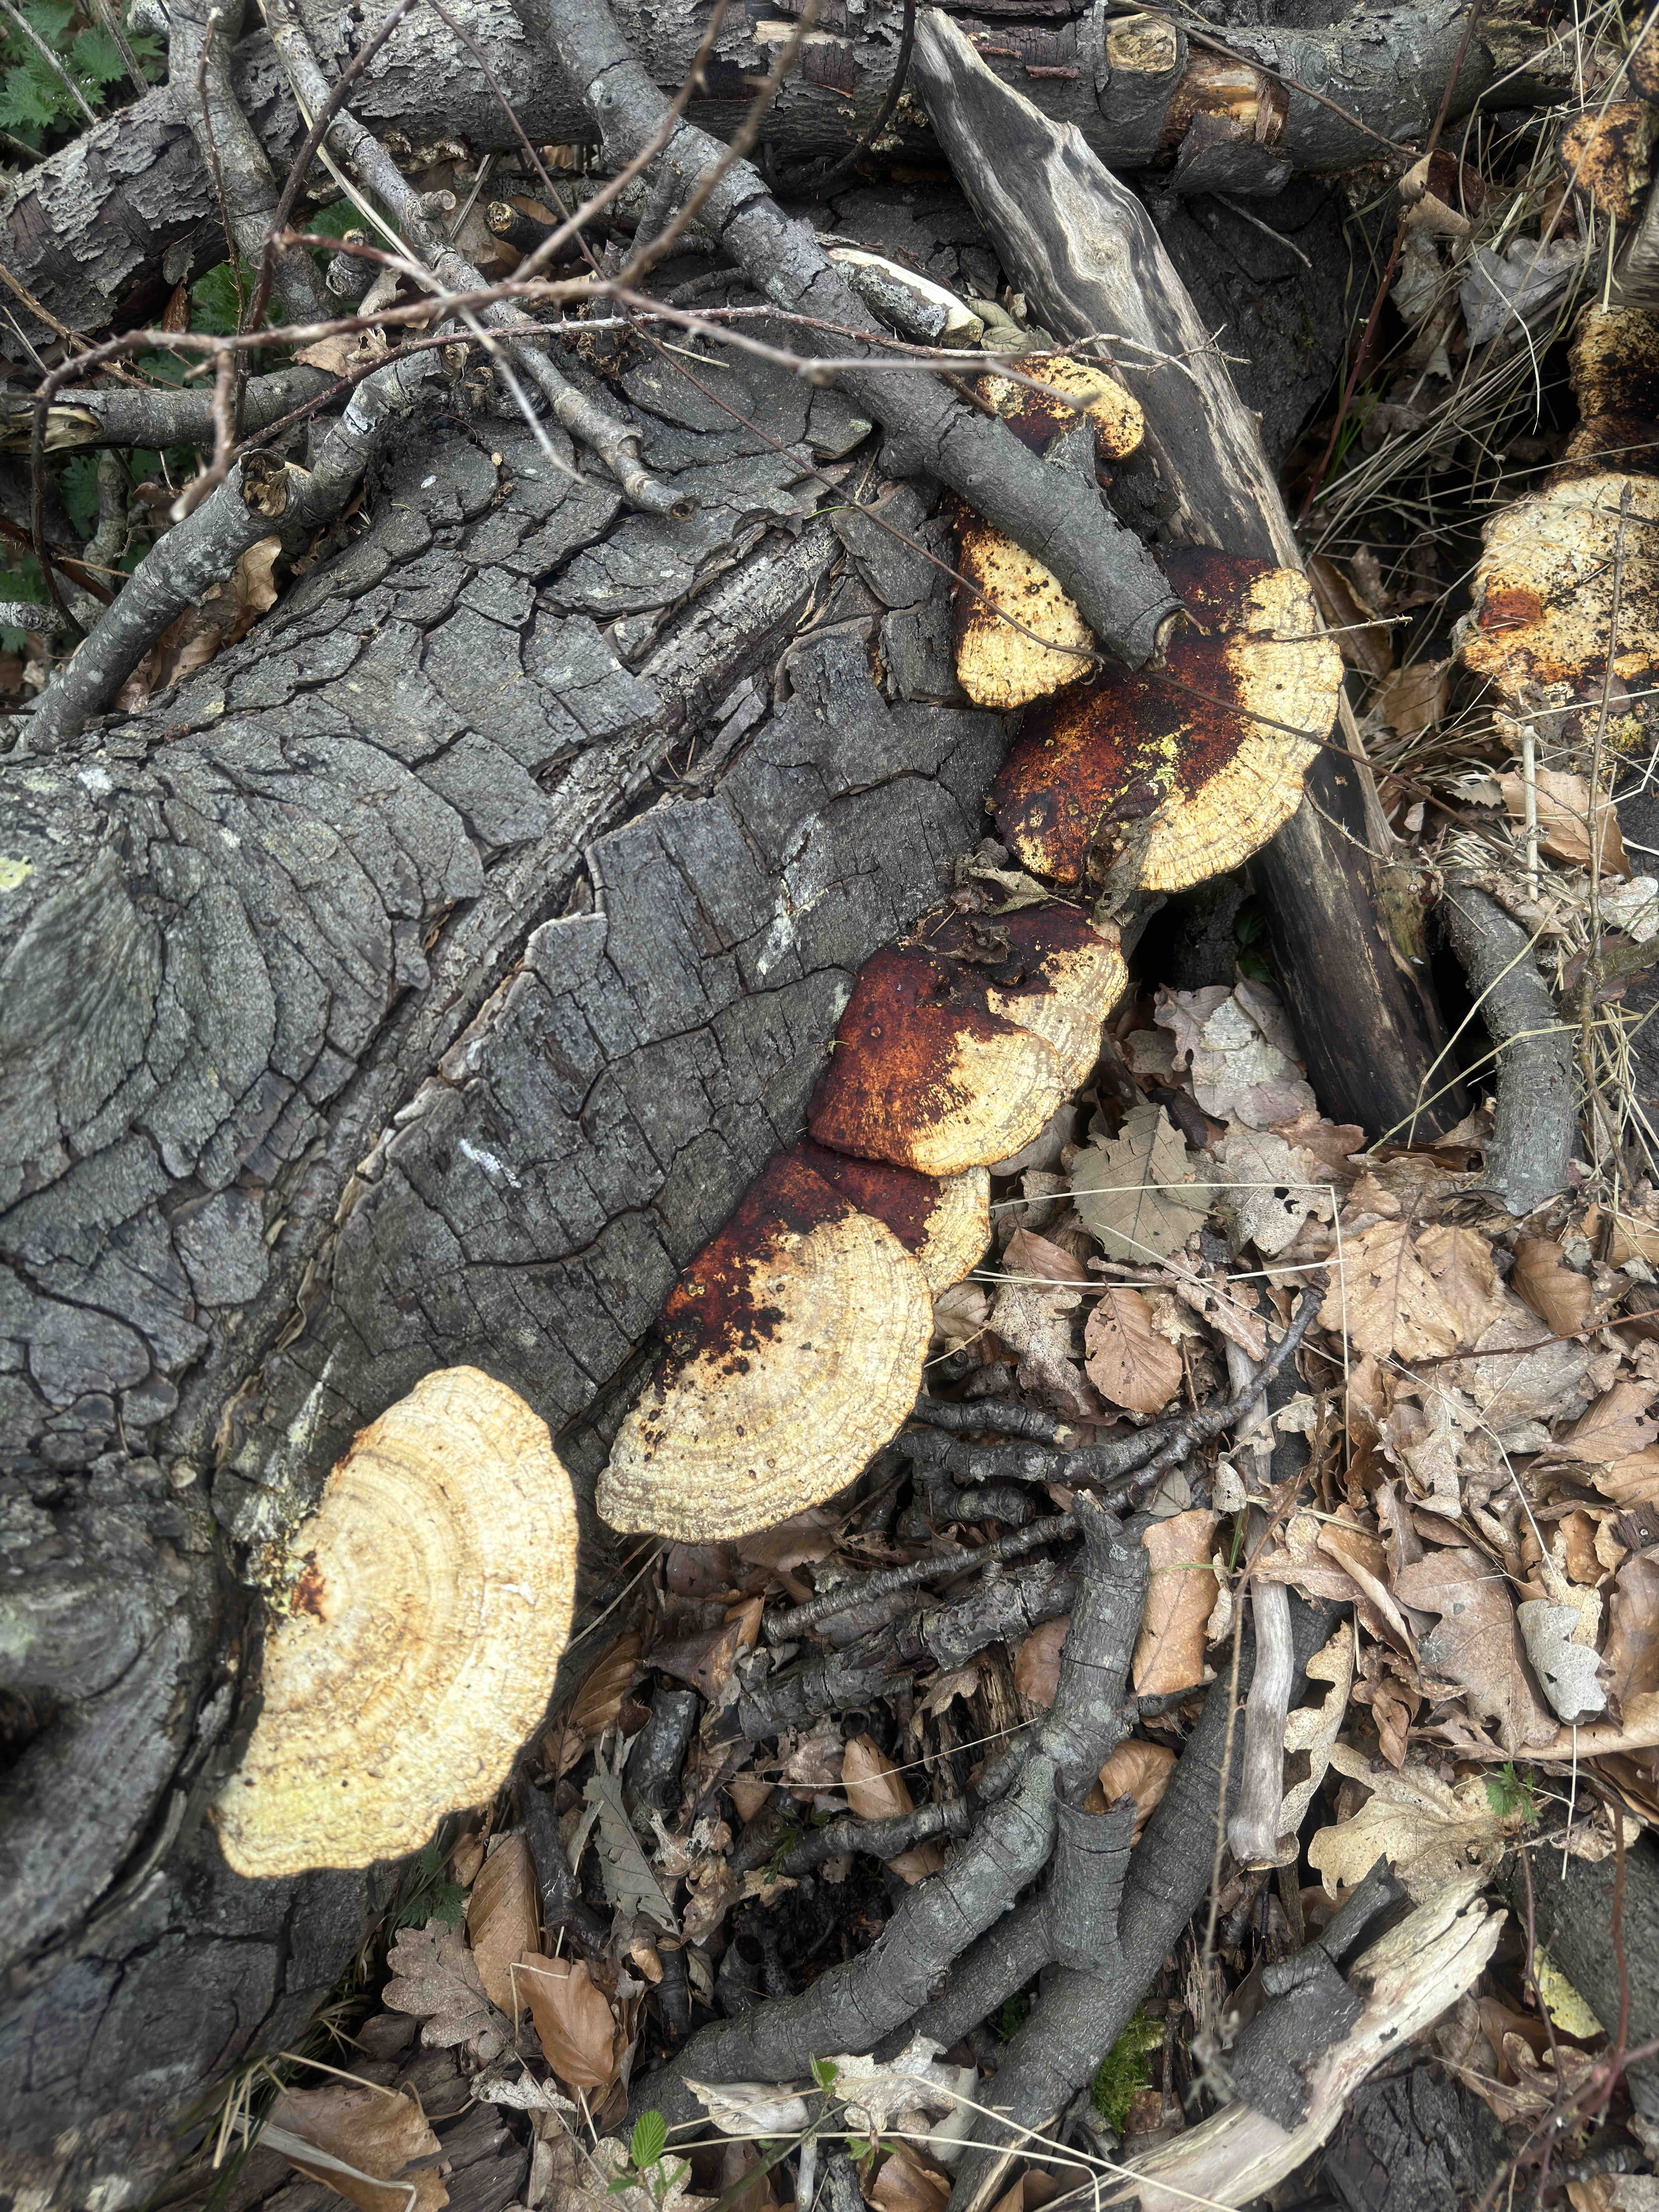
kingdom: Fungi
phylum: Basidiomycota
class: Agaricomycetes
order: Polyporales
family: Polyporaceae
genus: Daedaleopsis
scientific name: Daedaleopsis confragosa
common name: rødmende læderporesvamp
